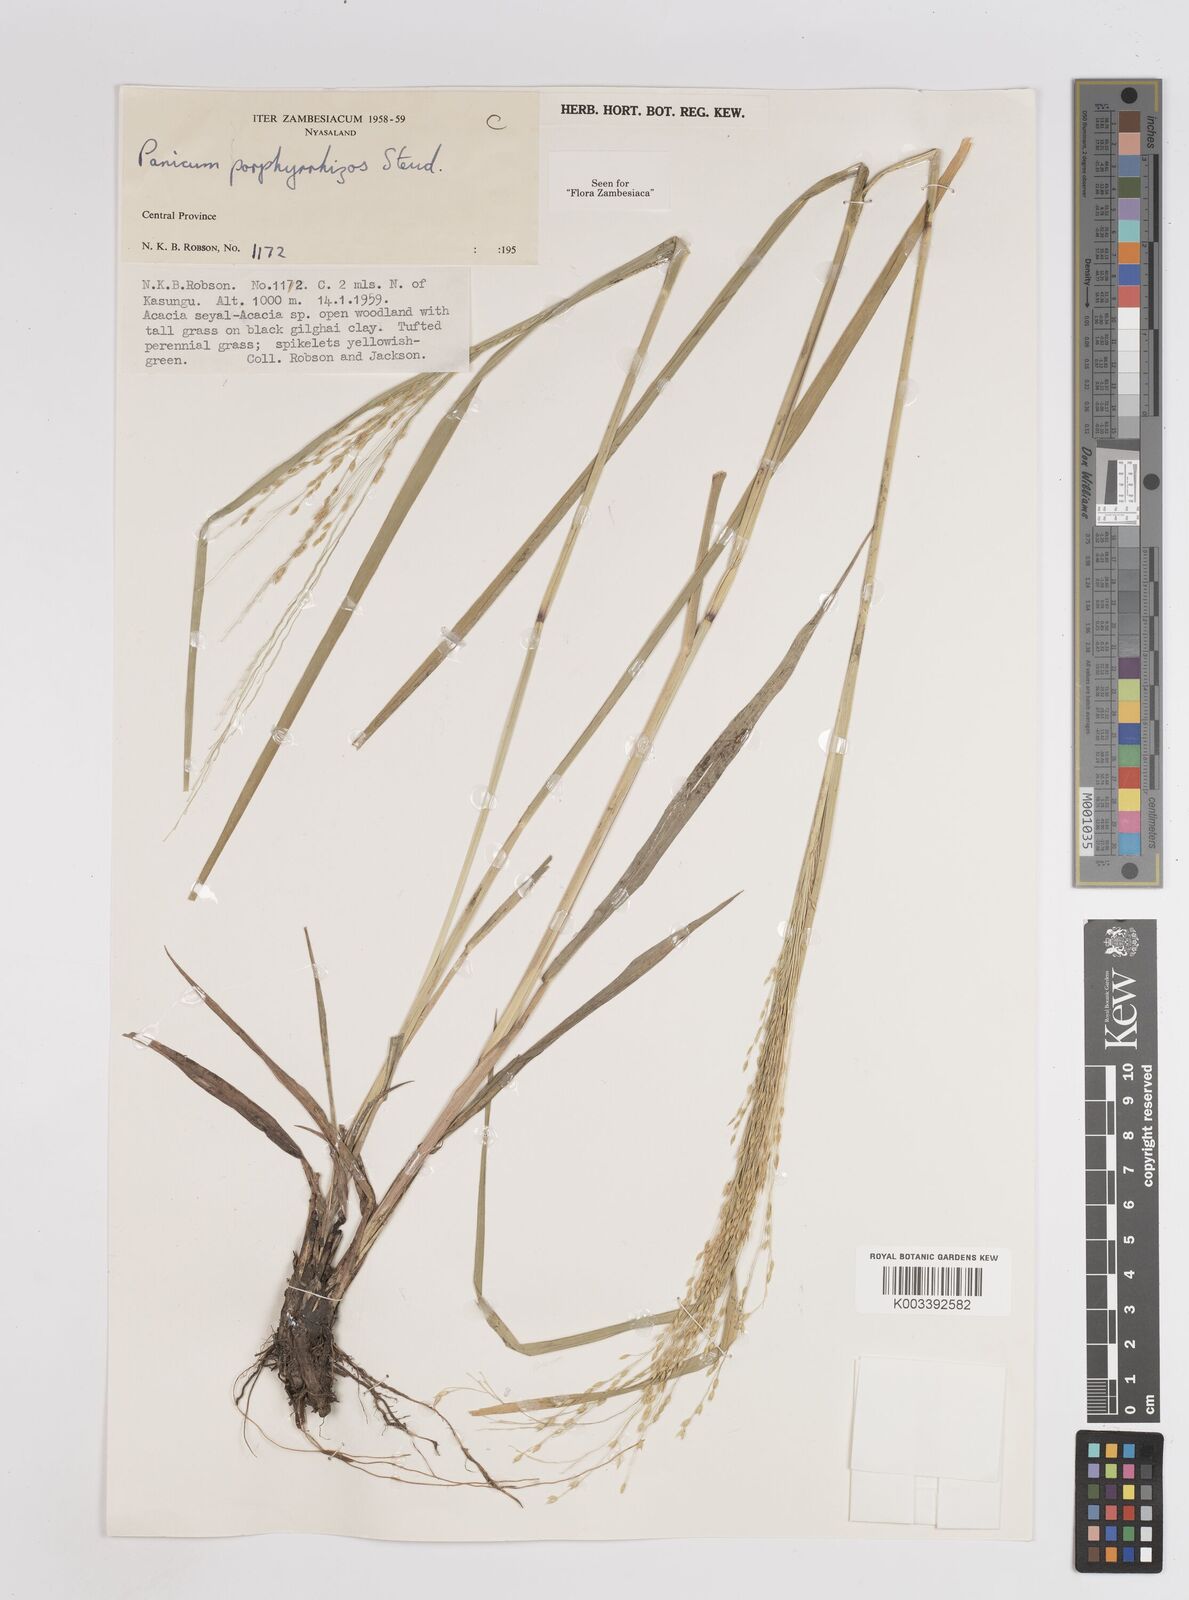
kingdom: Plantae
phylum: Tracheophyta
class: Liliopsida
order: Poales
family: Poaceae
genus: Panicum
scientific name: Panicum porphyrrhizos
